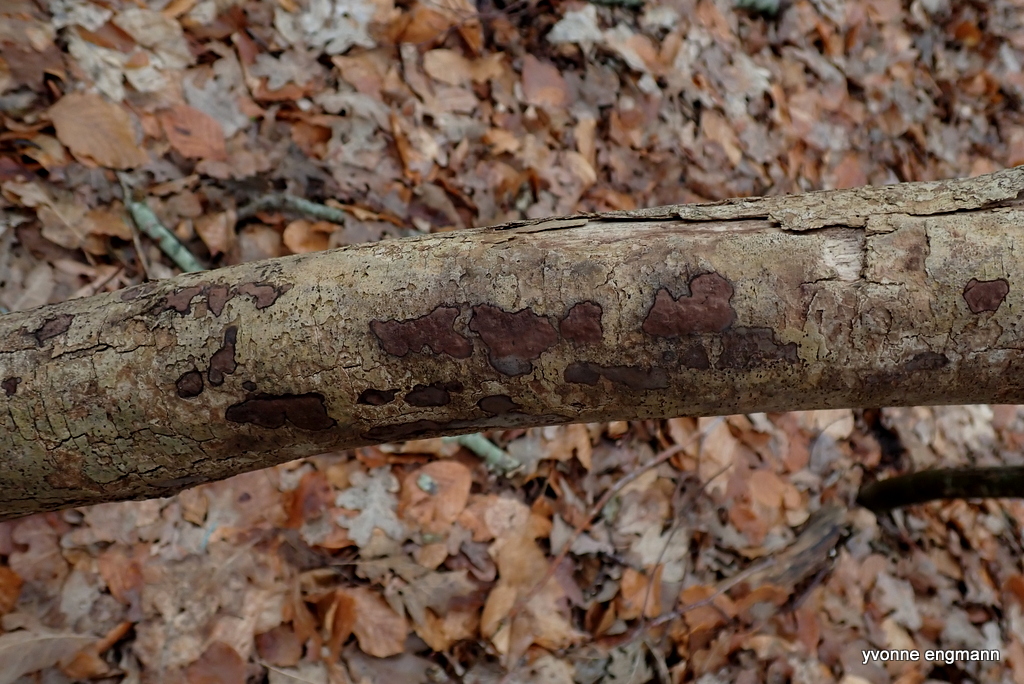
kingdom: Fungi
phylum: Ascomycota
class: Sordariomycetes
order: Xylariales
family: Hypoxylaceae
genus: Hypoxylon
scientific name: Hypoxylon petriniae
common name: nedsænket kulbær
